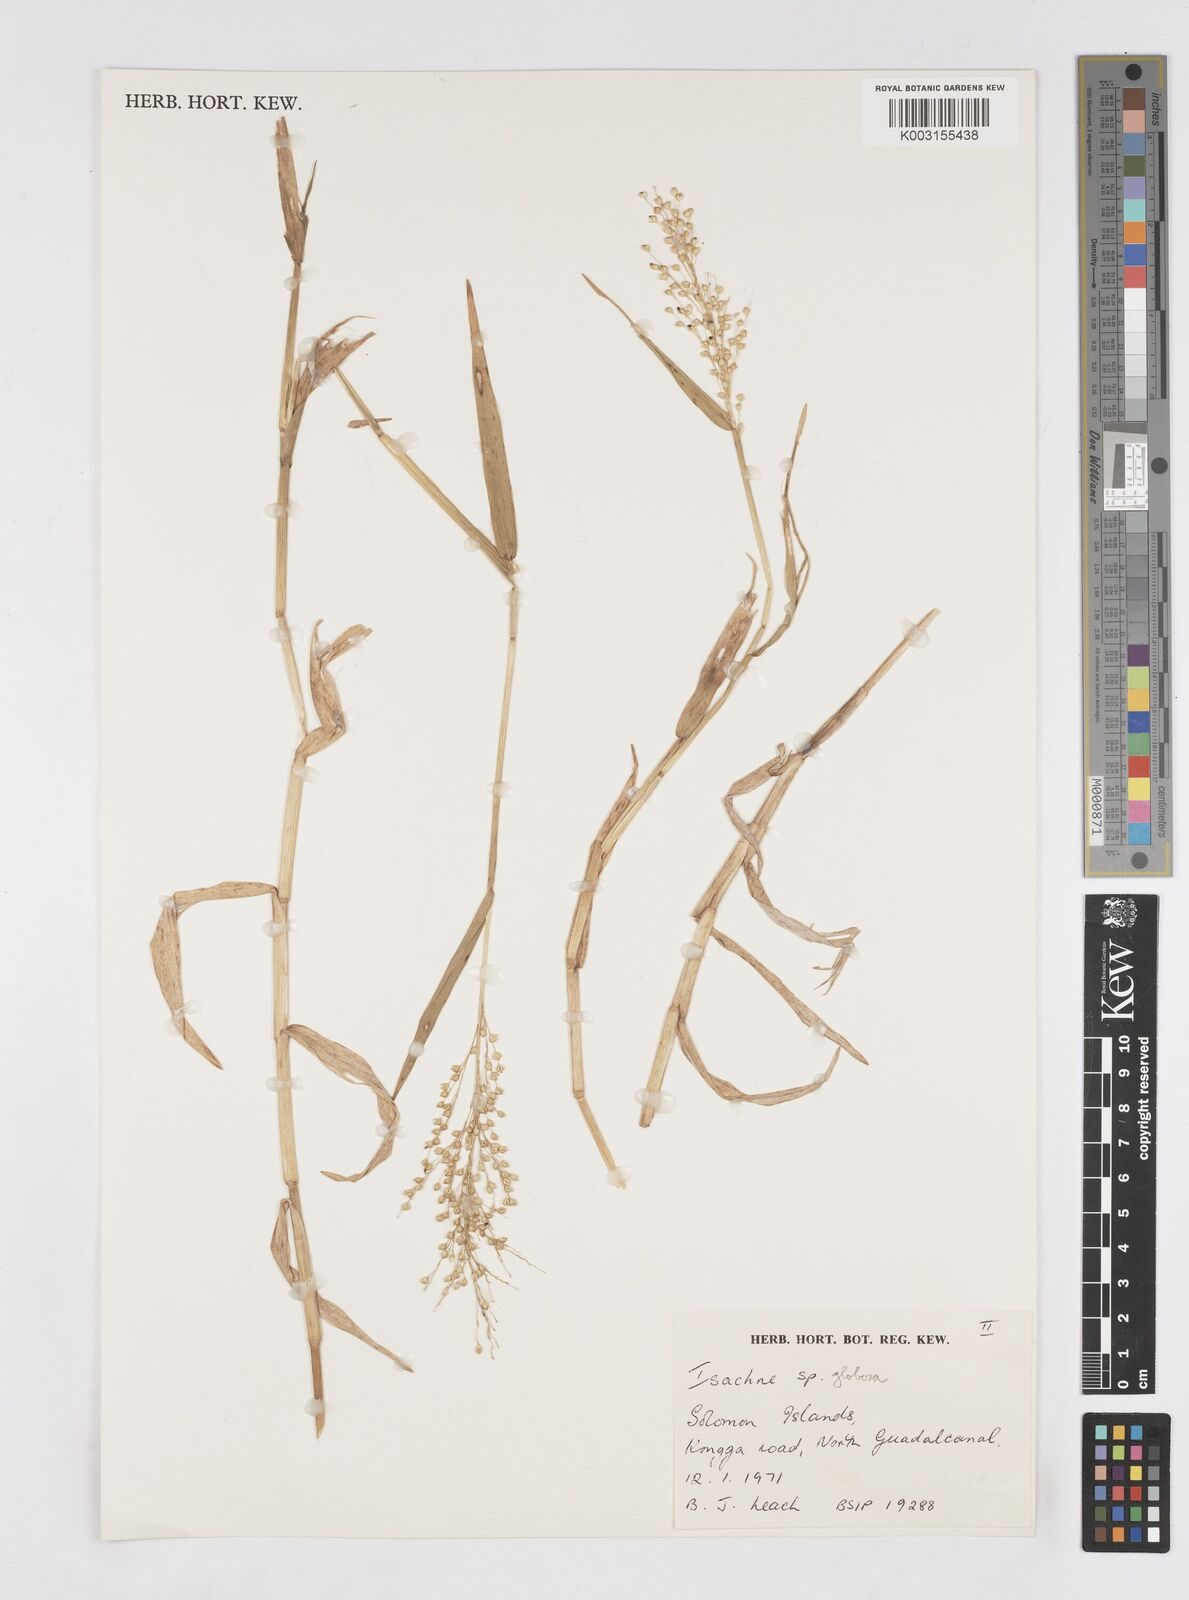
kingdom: Plantae
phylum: Tracheophyta
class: Liliopsida
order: Poales
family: Poaceae
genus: Isachne
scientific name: Isachne globosa
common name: Swamp millet
